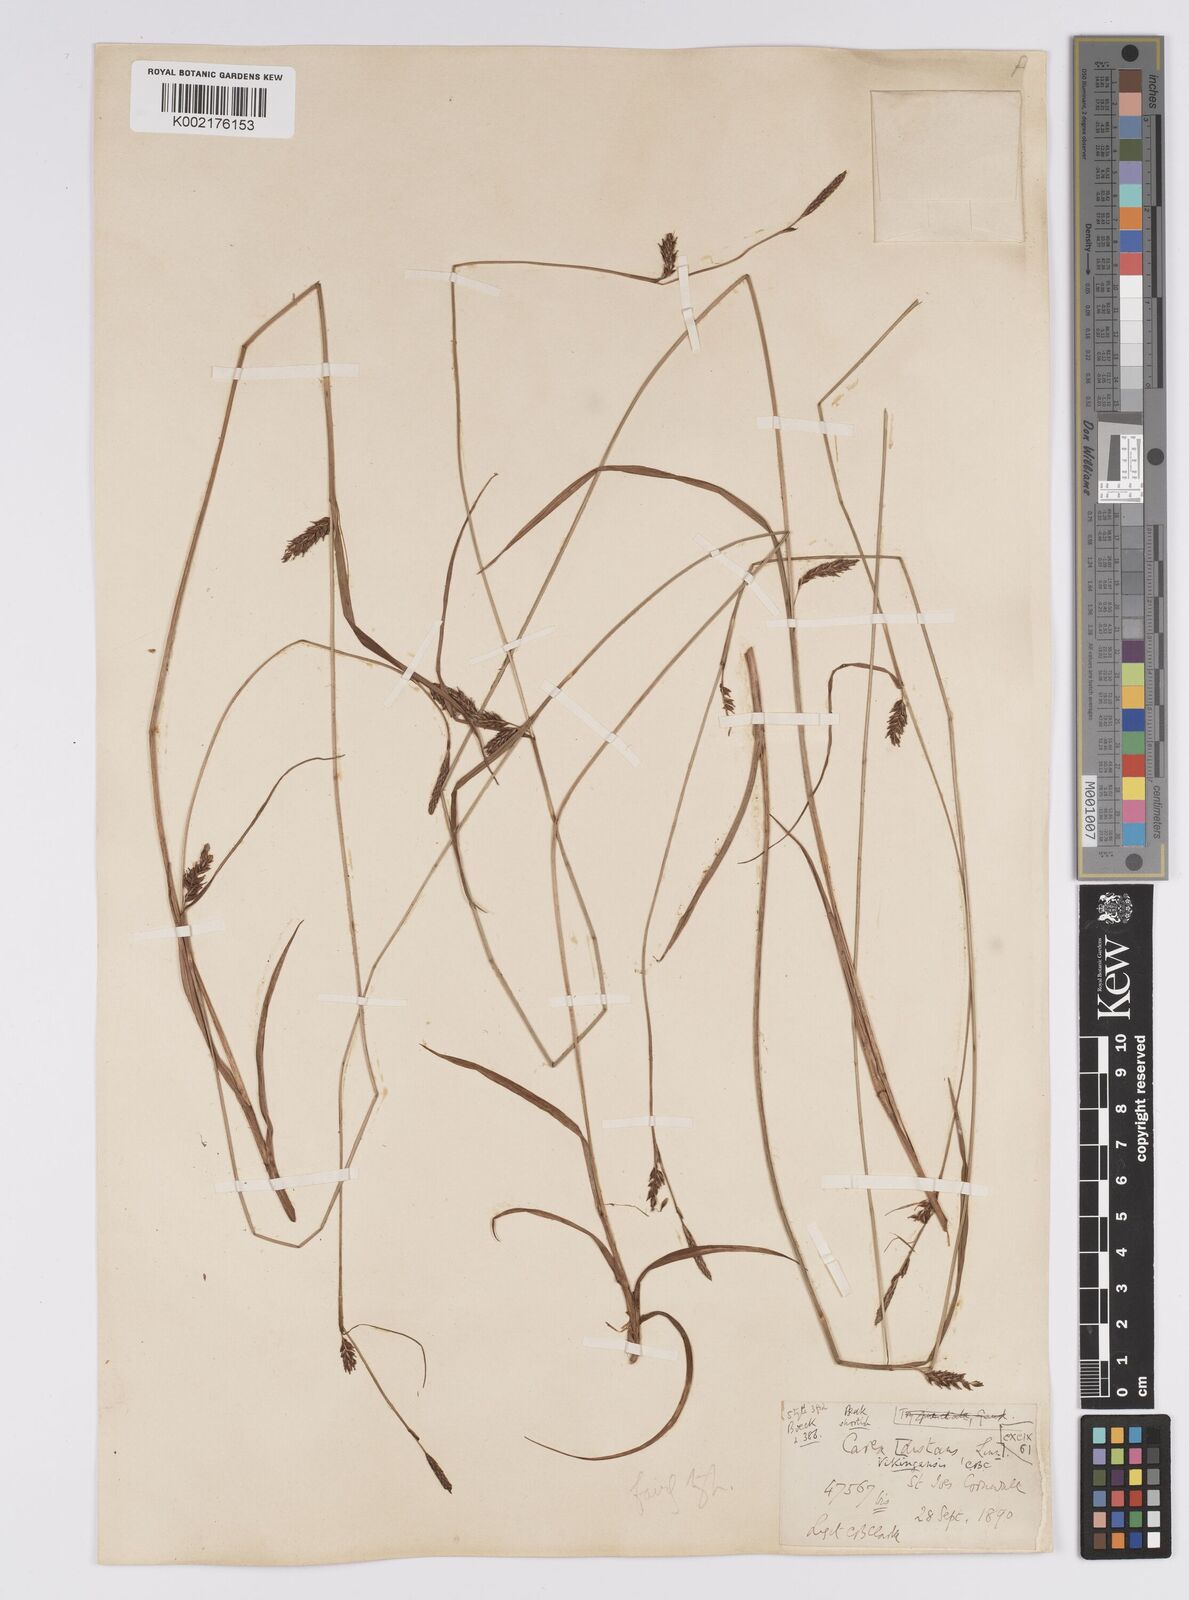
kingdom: Plantae
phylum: Tracheophyta
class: Liliopsida
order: Poales
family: Cyperaceae
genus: Carex
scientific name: Carex distans
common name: Distant sedge
